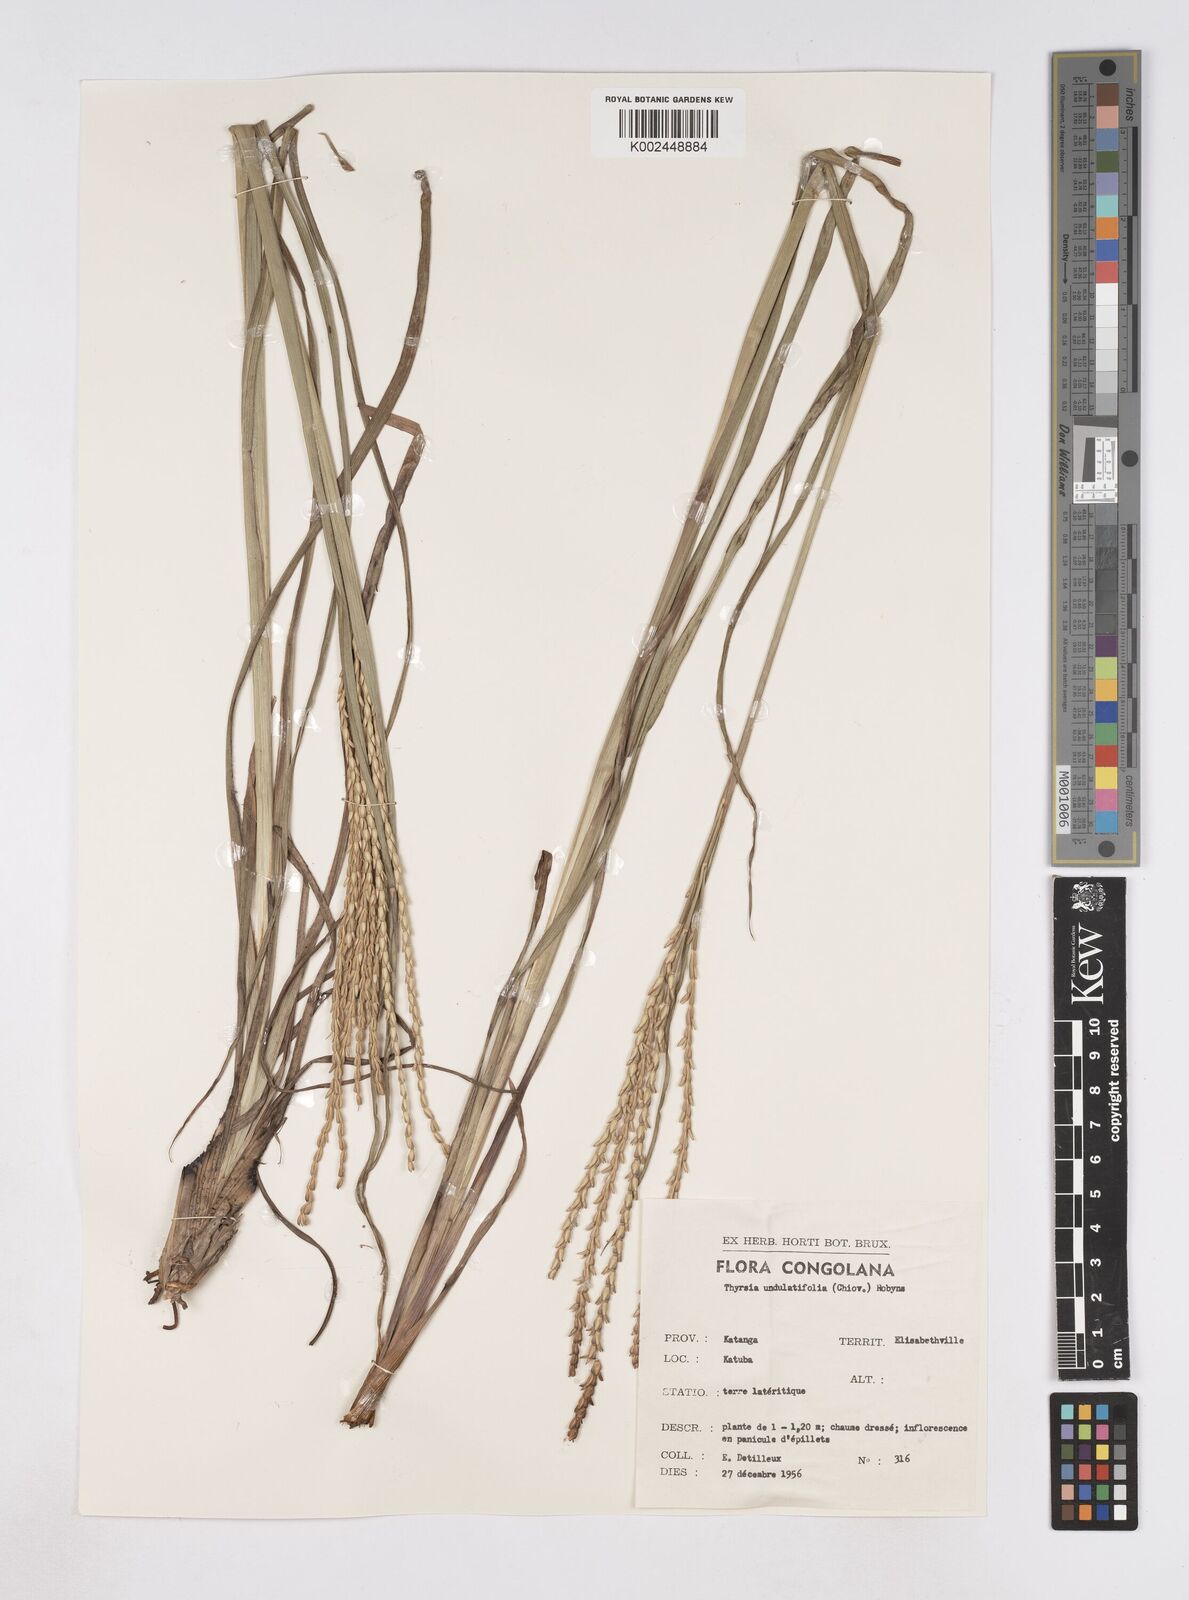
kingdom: Plantae
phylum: Tracheophyta
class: Liliopsida
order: Poales
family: Poaceae
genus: Thyrsia
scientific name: Thyrsia huillensis
